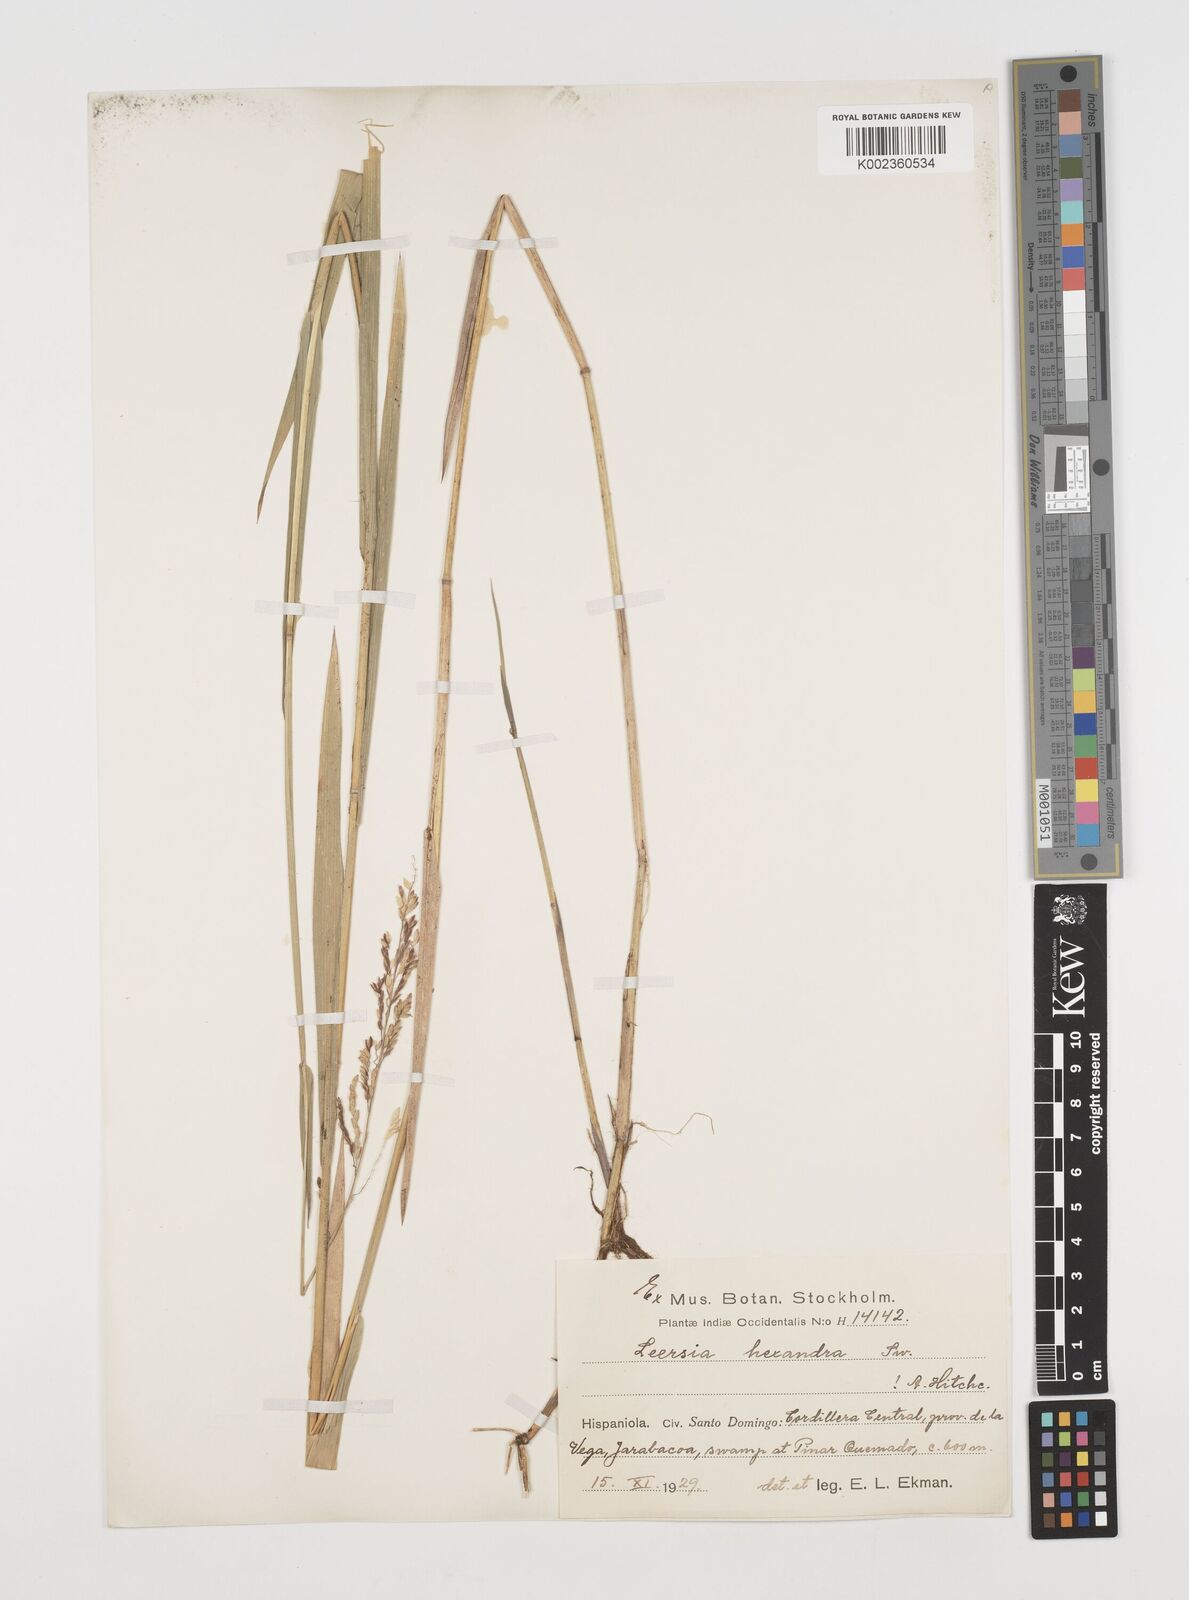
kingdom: Plantae
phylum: Tracheophyta
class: Liliopsida
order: Poales
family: Poaceae
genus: Leersia
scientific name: Leersia hexandra
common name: Southern cut grass
